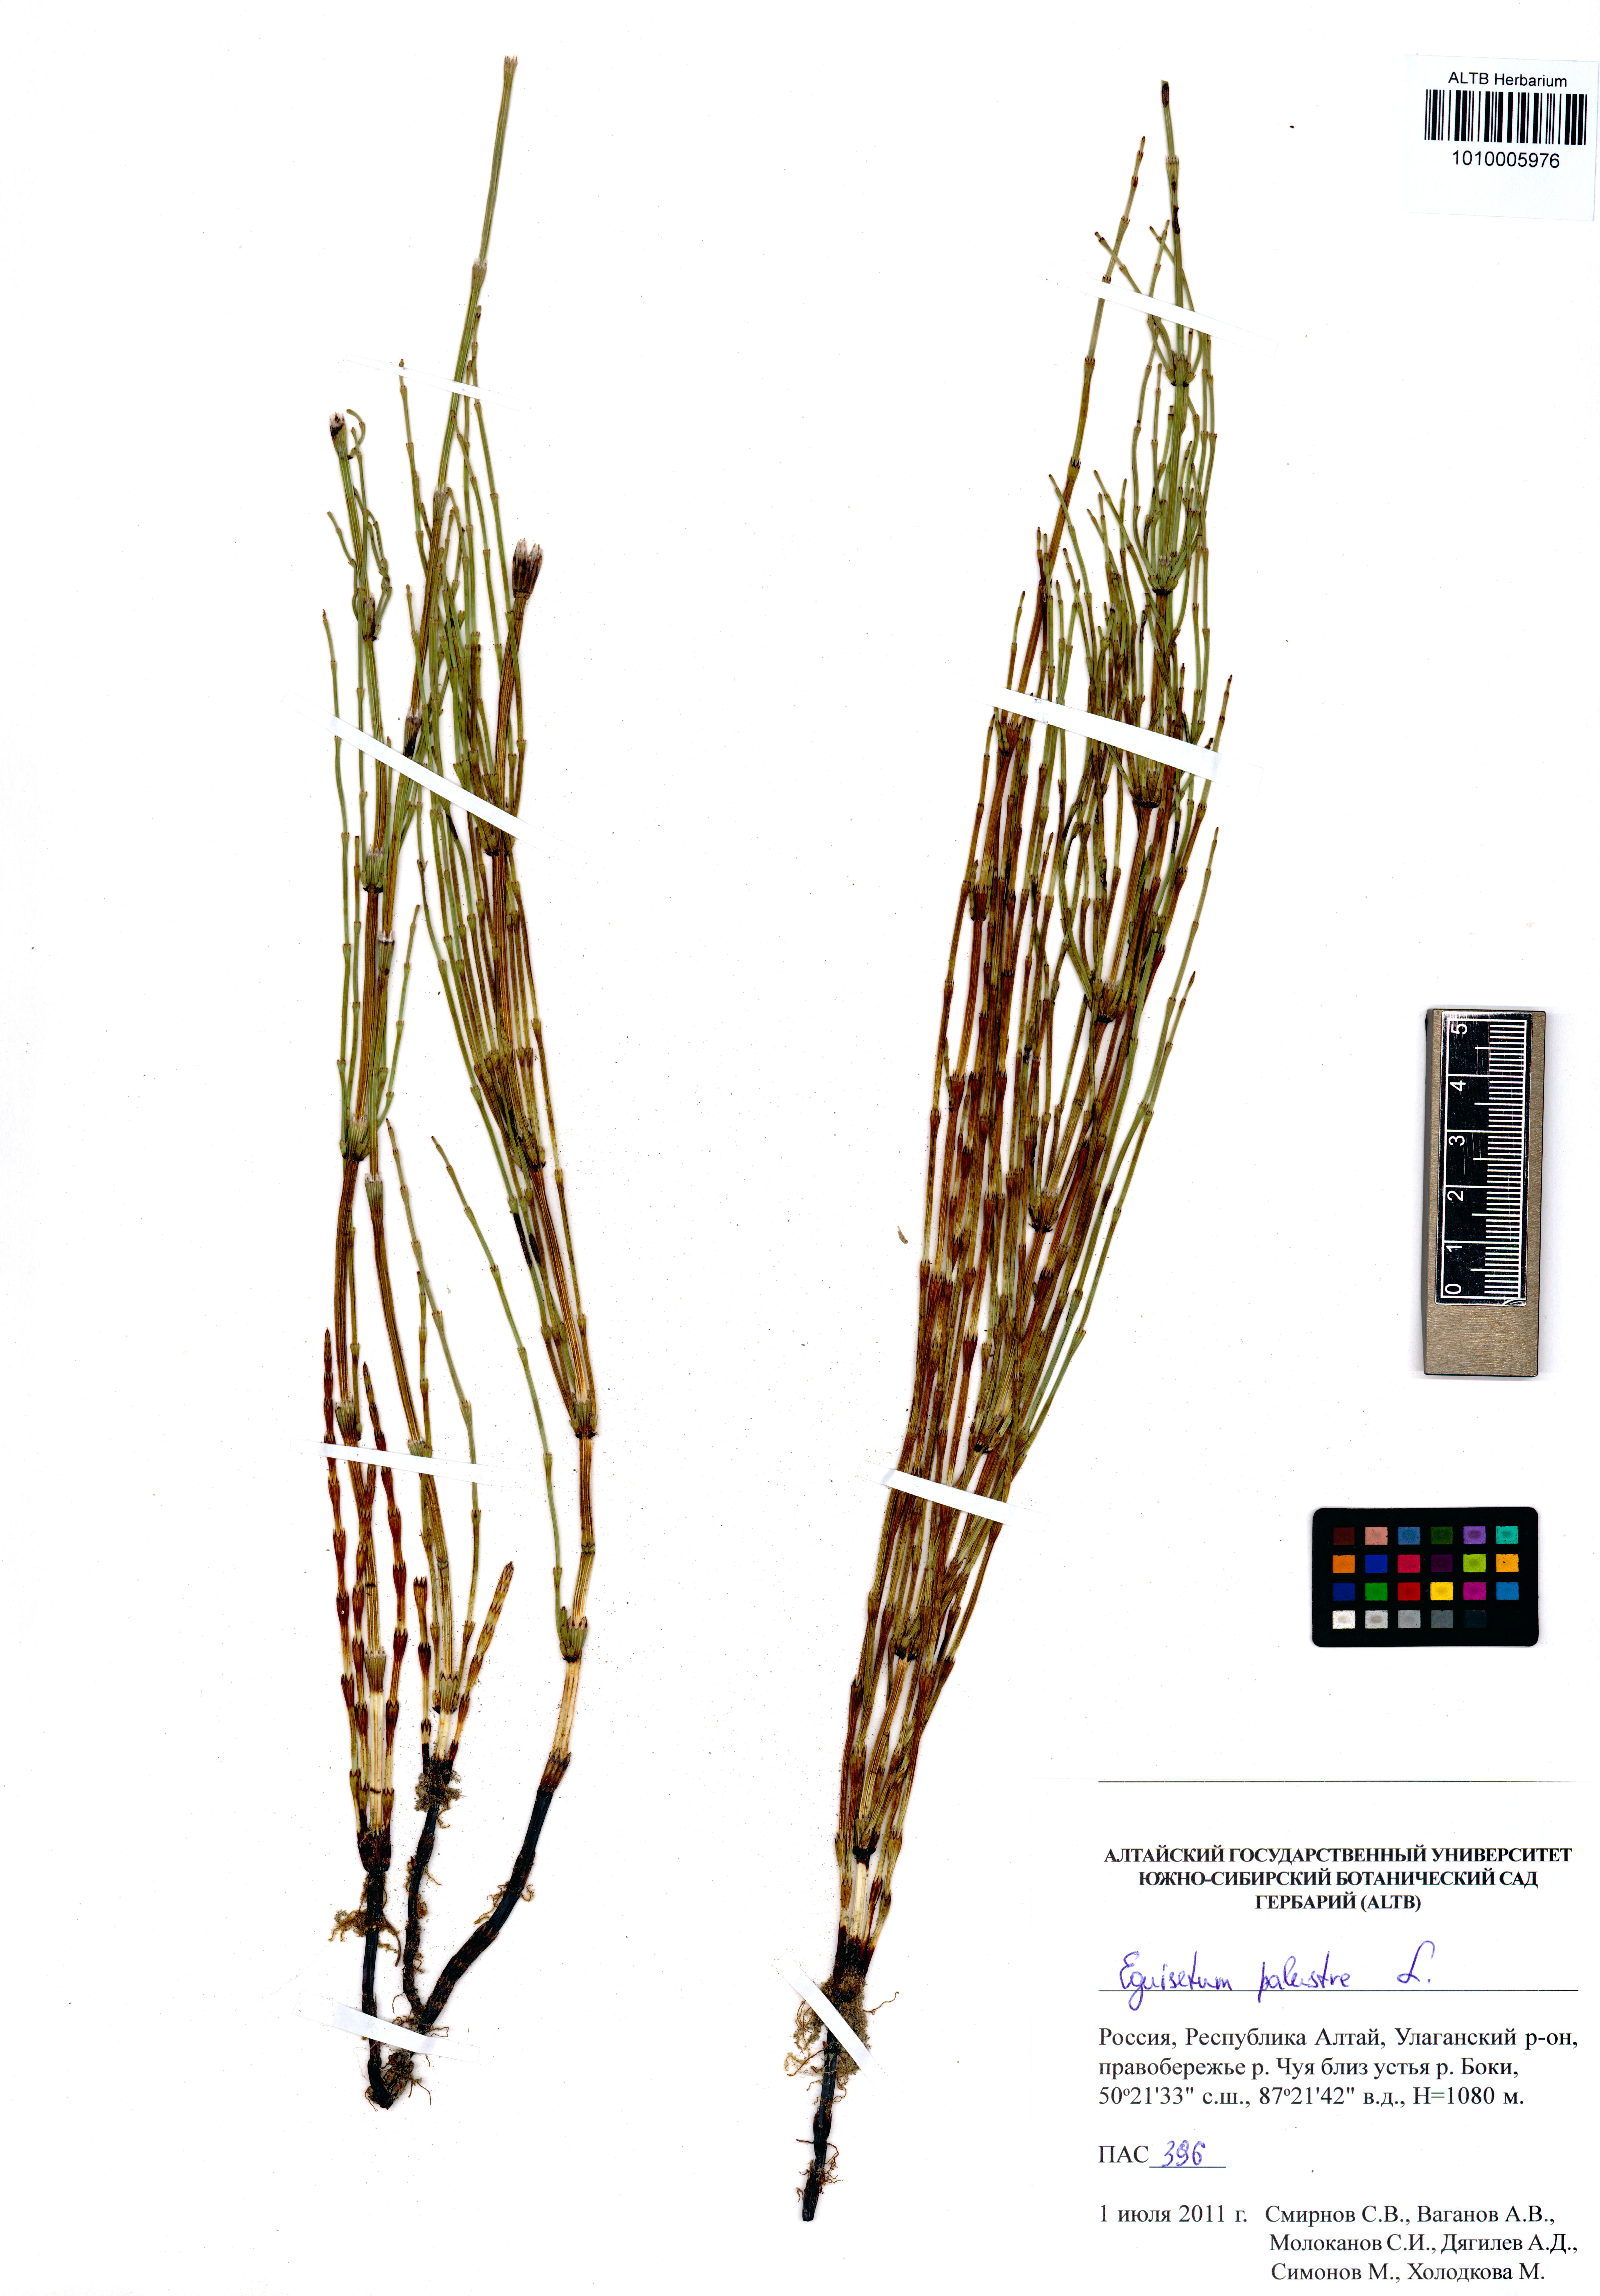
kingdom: Plantae
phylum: Tracheophyta
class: Polypodiopsida
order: Equisetales
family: Equisetaceae
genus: Equisetum
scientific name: Equisetum palustre
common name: Marsh horsetail
